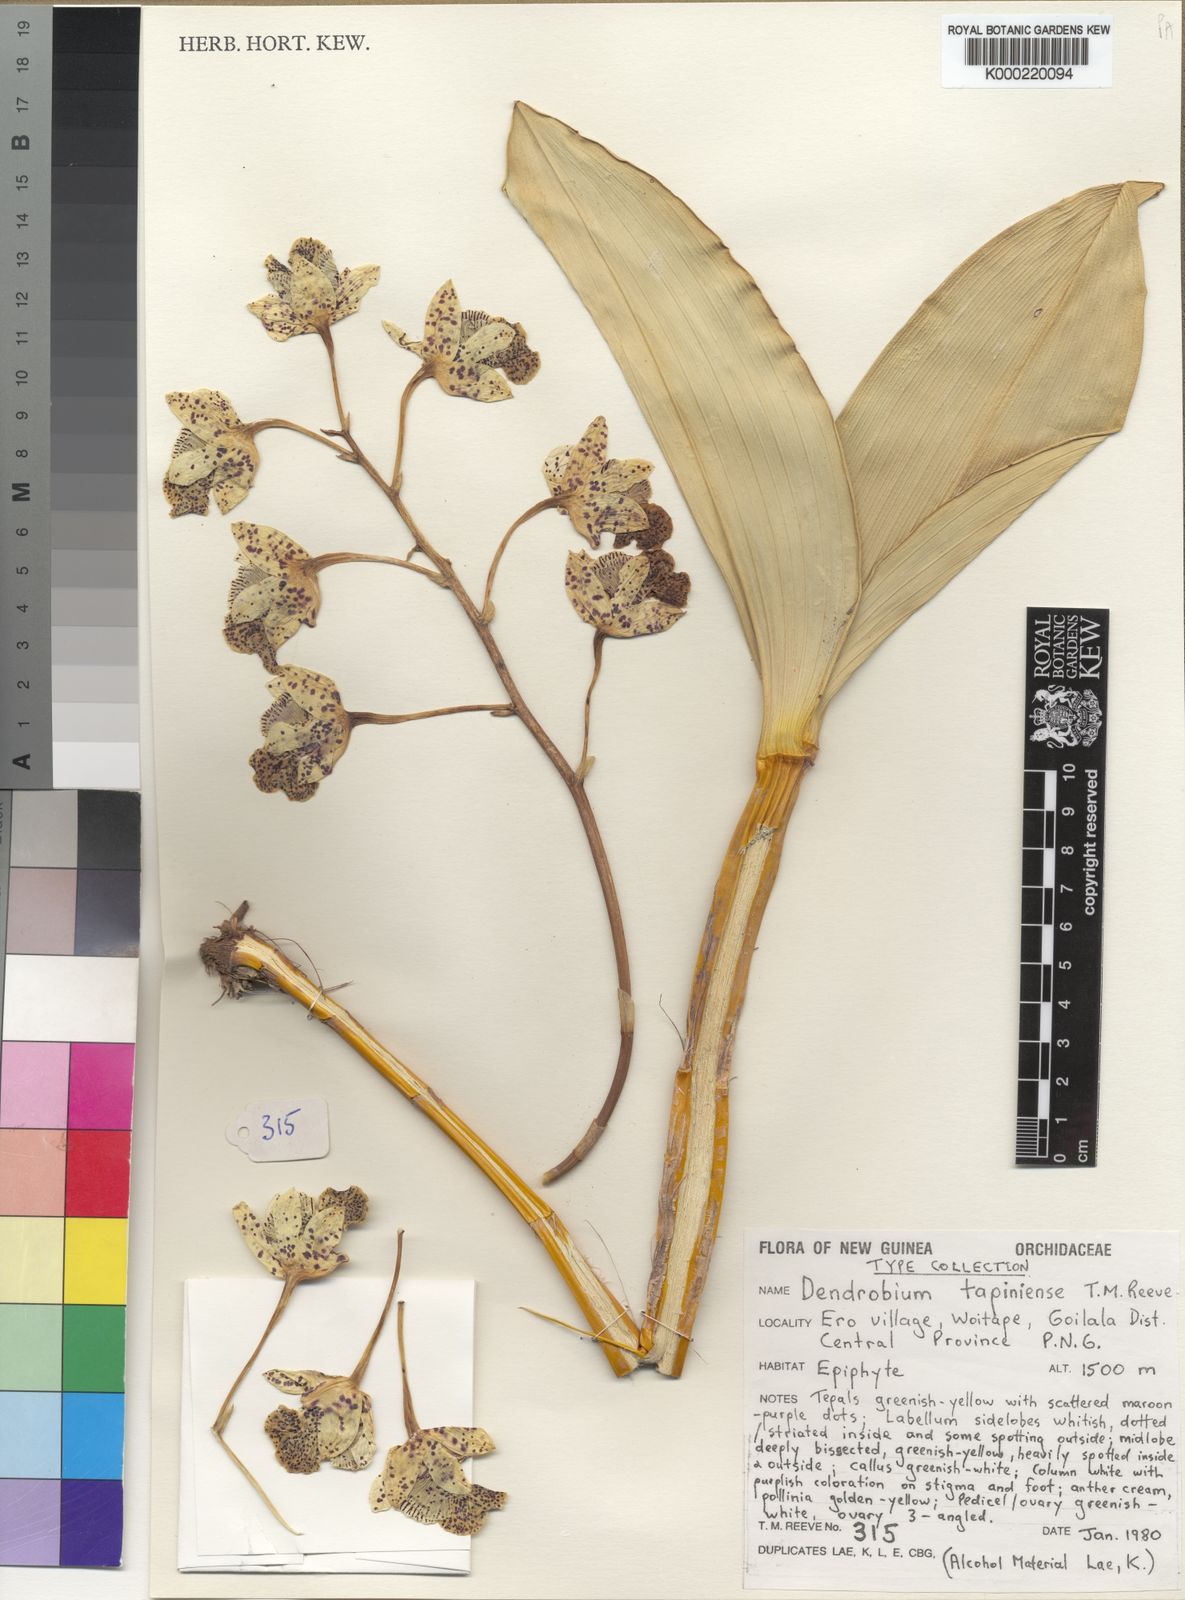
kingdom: Plantae
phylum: Tracheophyta
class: Liliopsida
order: Asparagales
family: Orchidaceae
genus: Dendrobium
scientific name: Dendrobium tapiniense
